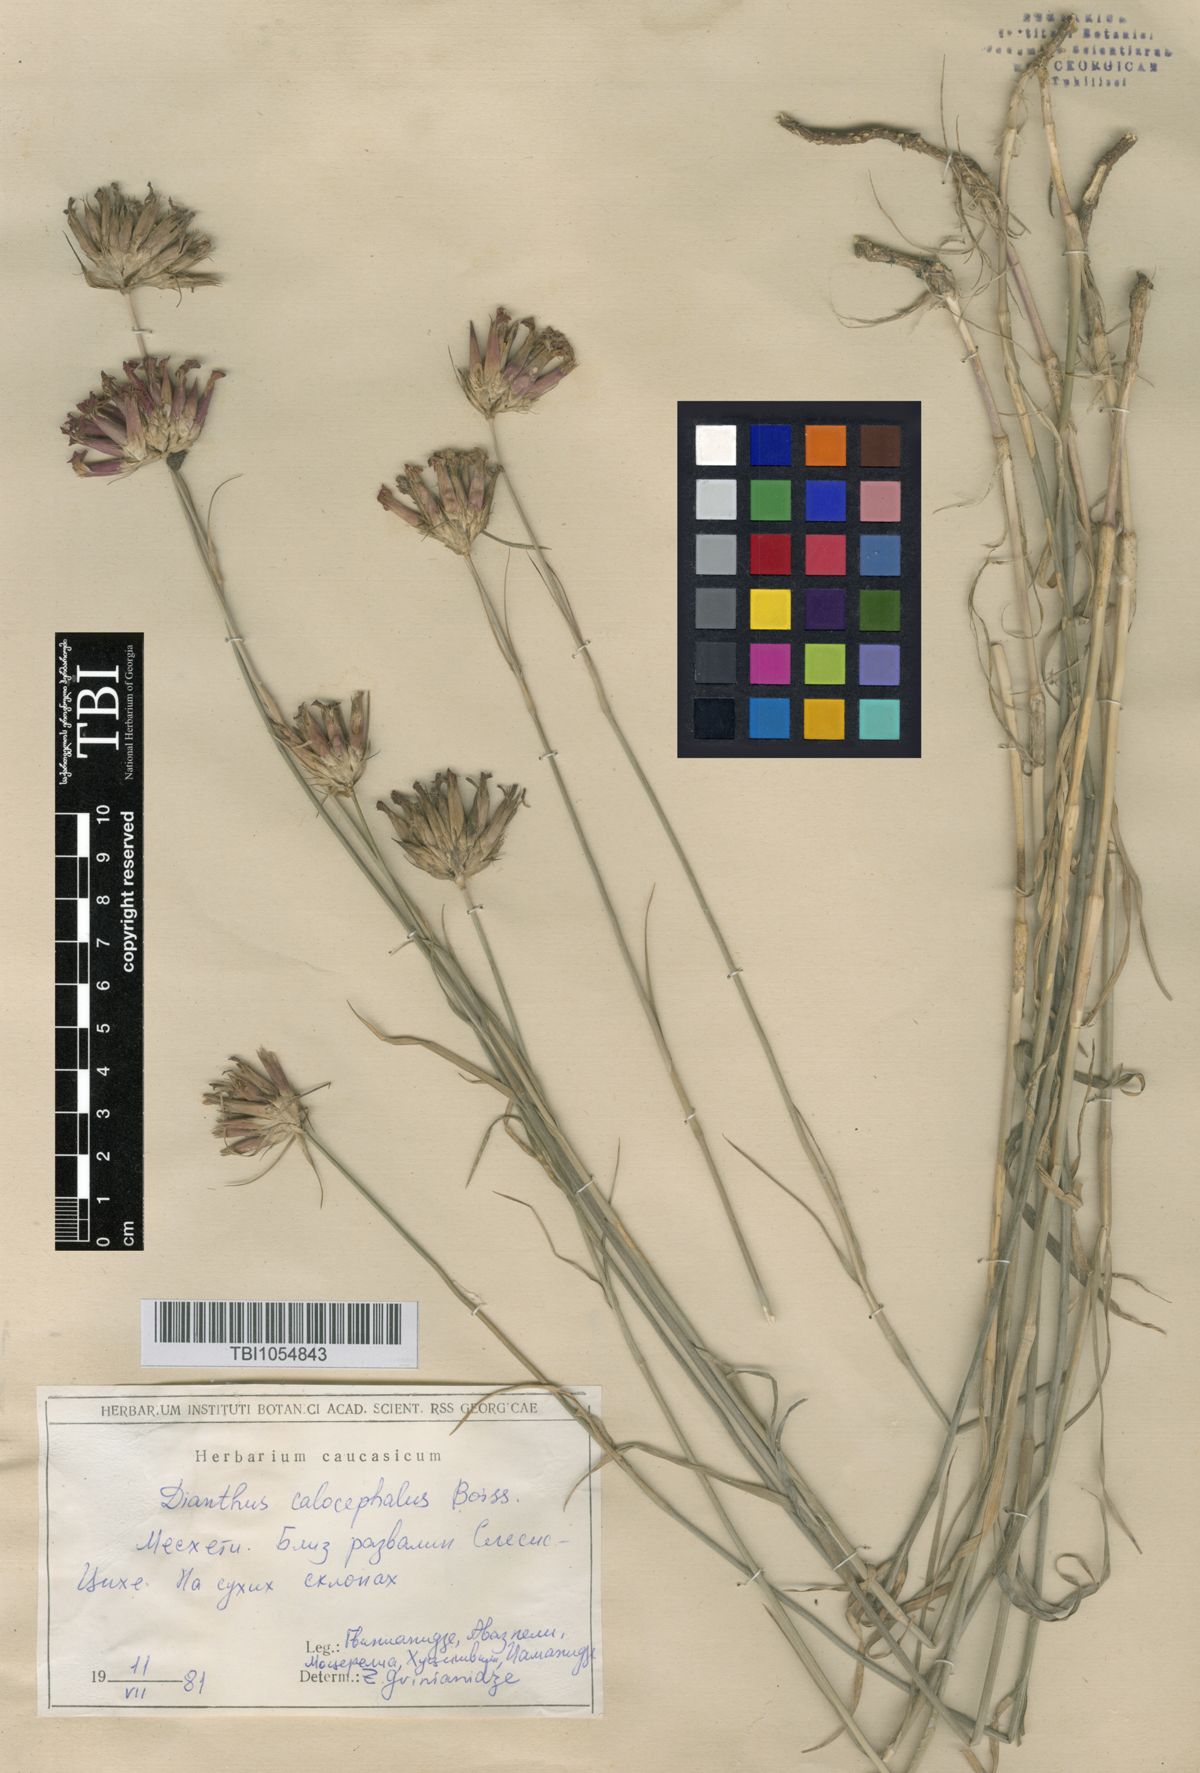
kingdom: Plantae
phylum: Tracheophyta
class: Magnoliopsida
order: Caryophyllales
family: Caryophyllaceae
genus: Dianthus
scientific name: Dianthus cruentus
